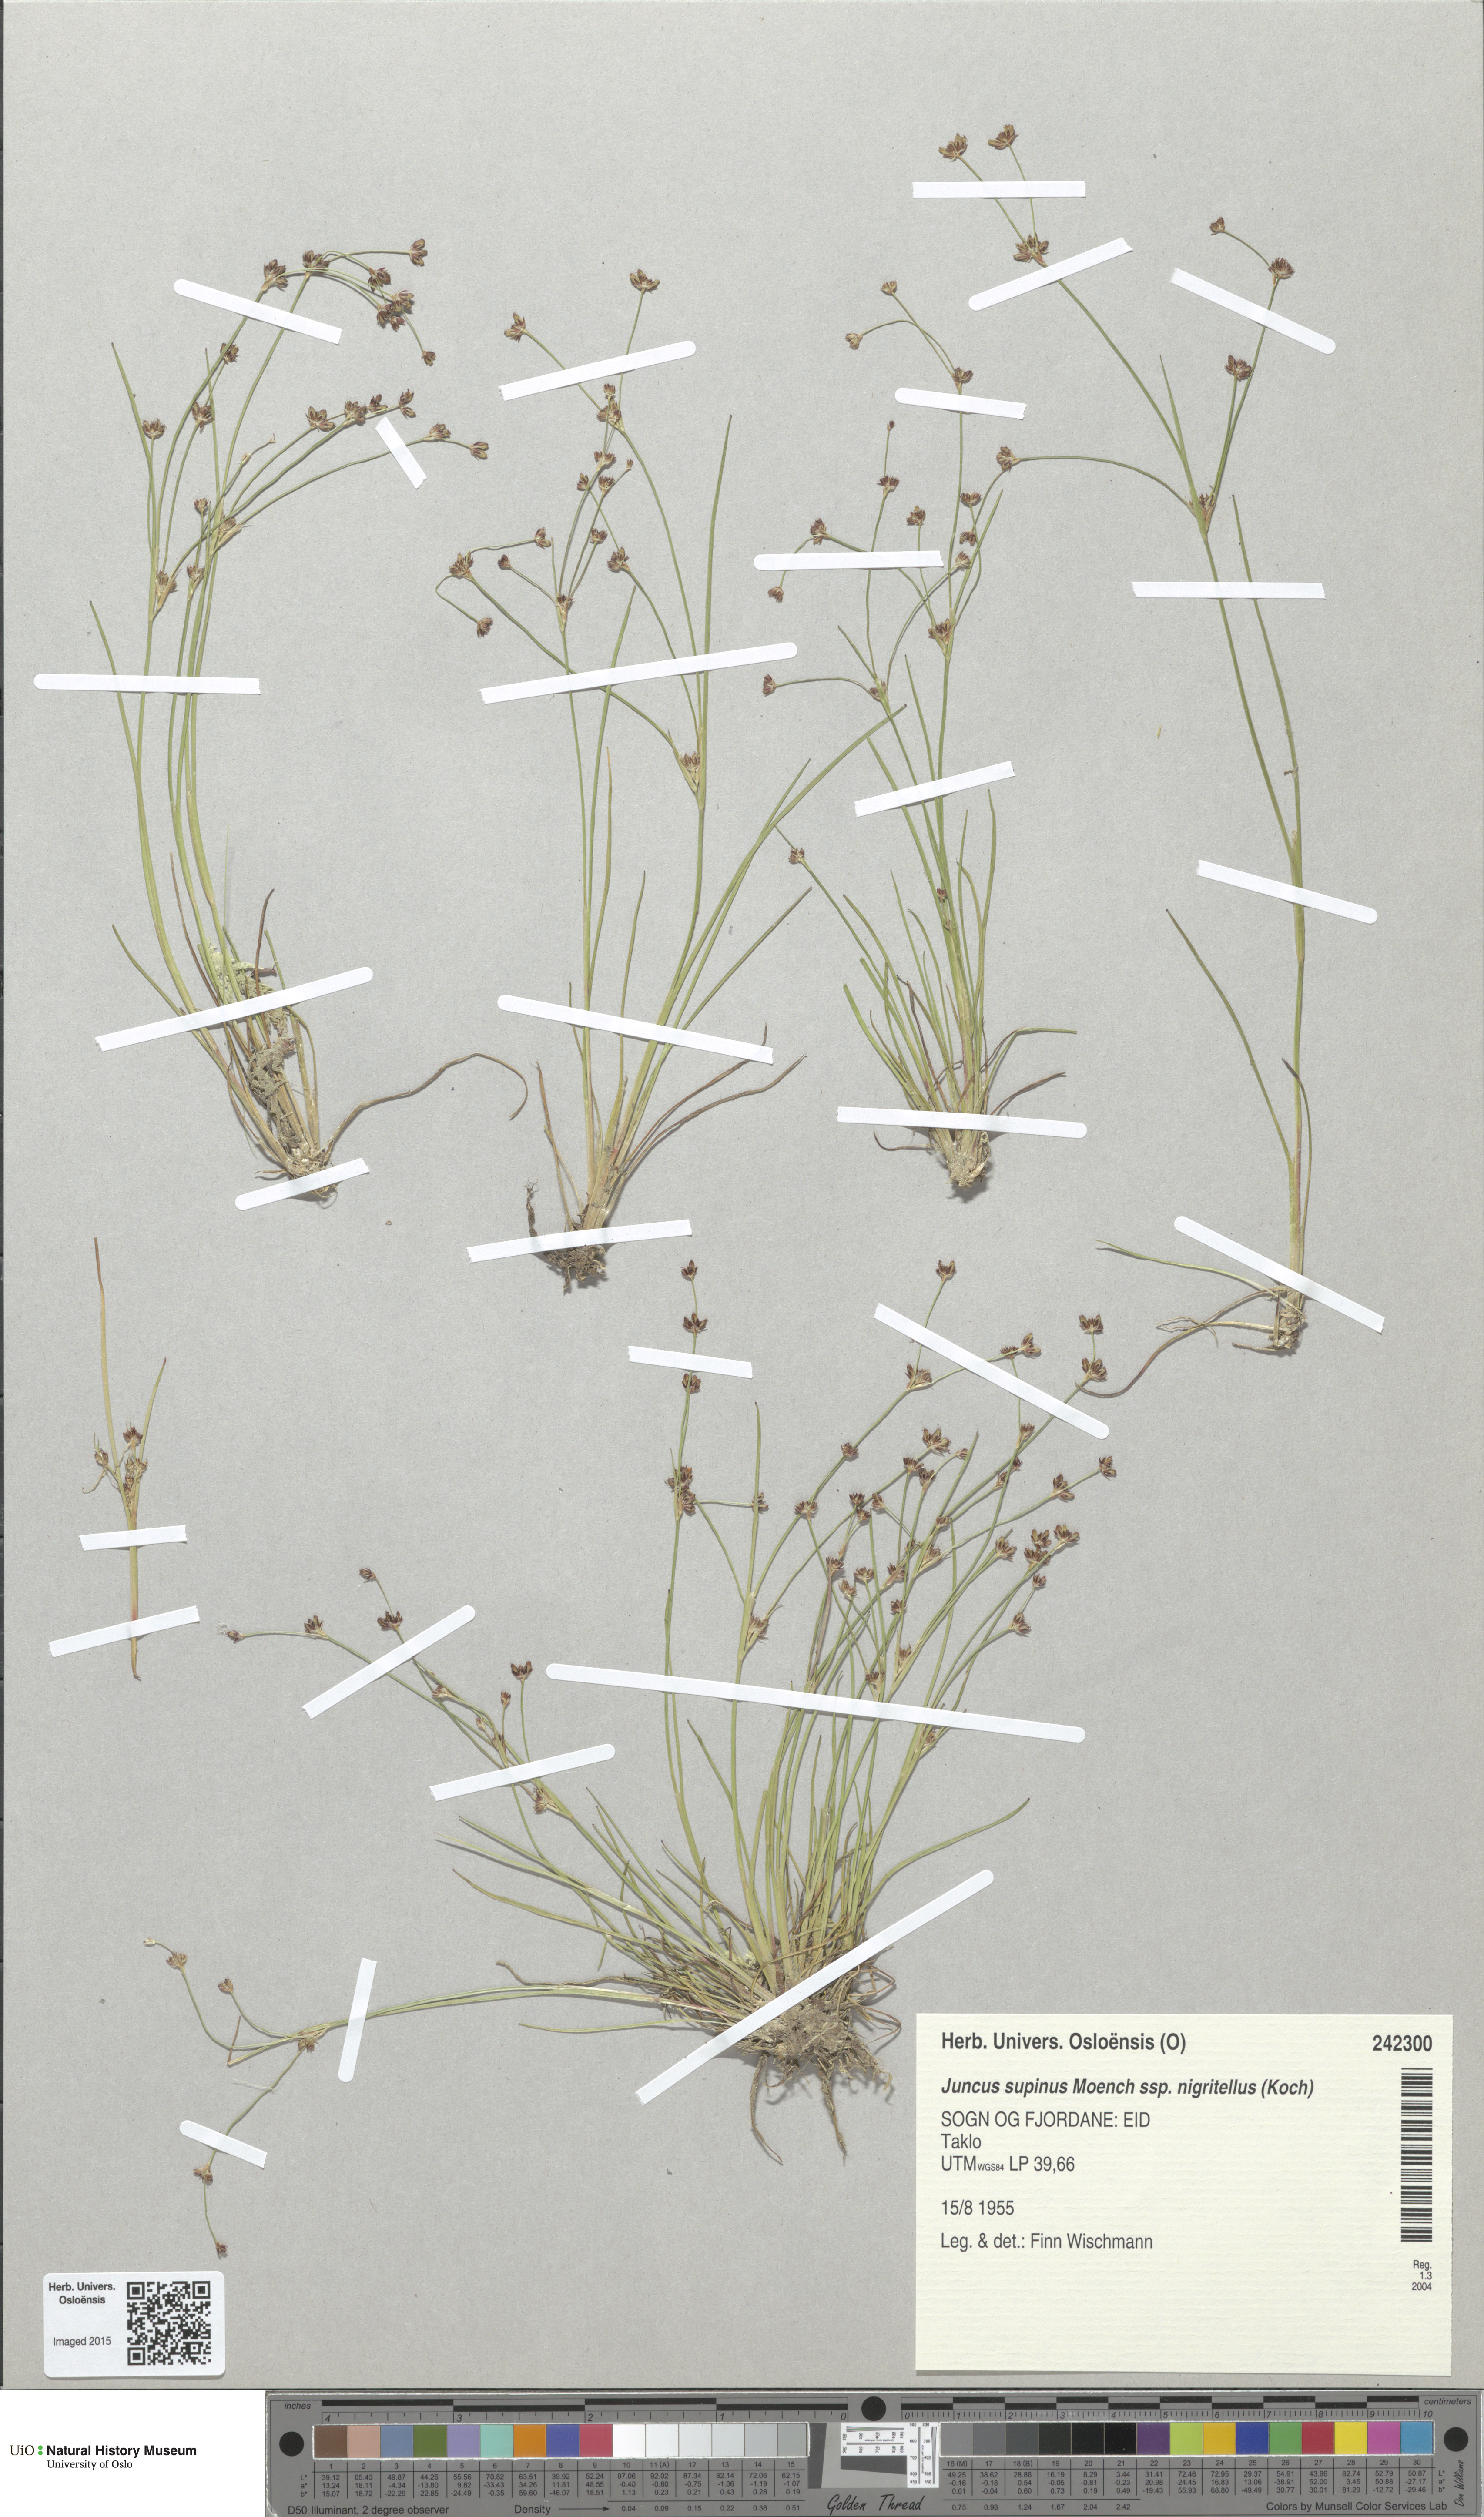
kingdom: Plantae
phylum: Tracheophyta
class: Liliopsida
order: Poales
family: Juncaceae
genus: Juncus
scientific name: Juncus bulbosus
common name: Bulbous rush
